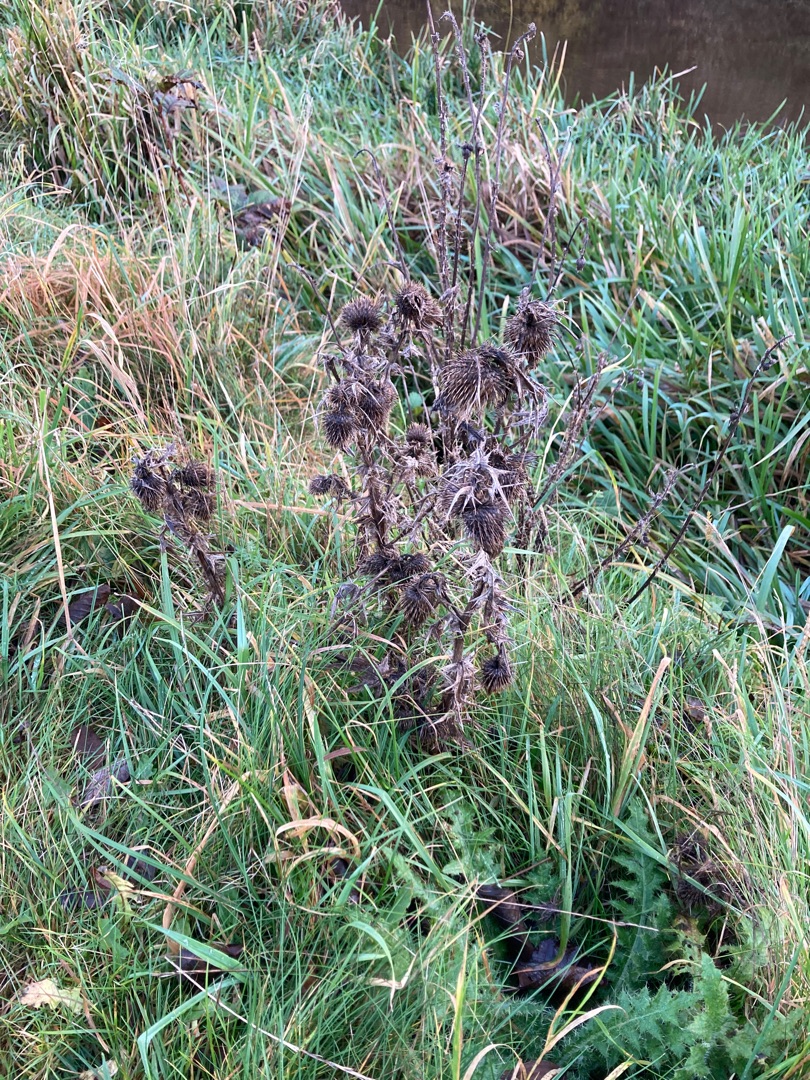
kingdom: Plantae
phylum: Tracheophyta
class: Magnoliopsida
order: Asterales
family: Asteraceae
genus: Cirsium
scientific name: Cirsium vulgare
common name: Horse-tidsel
